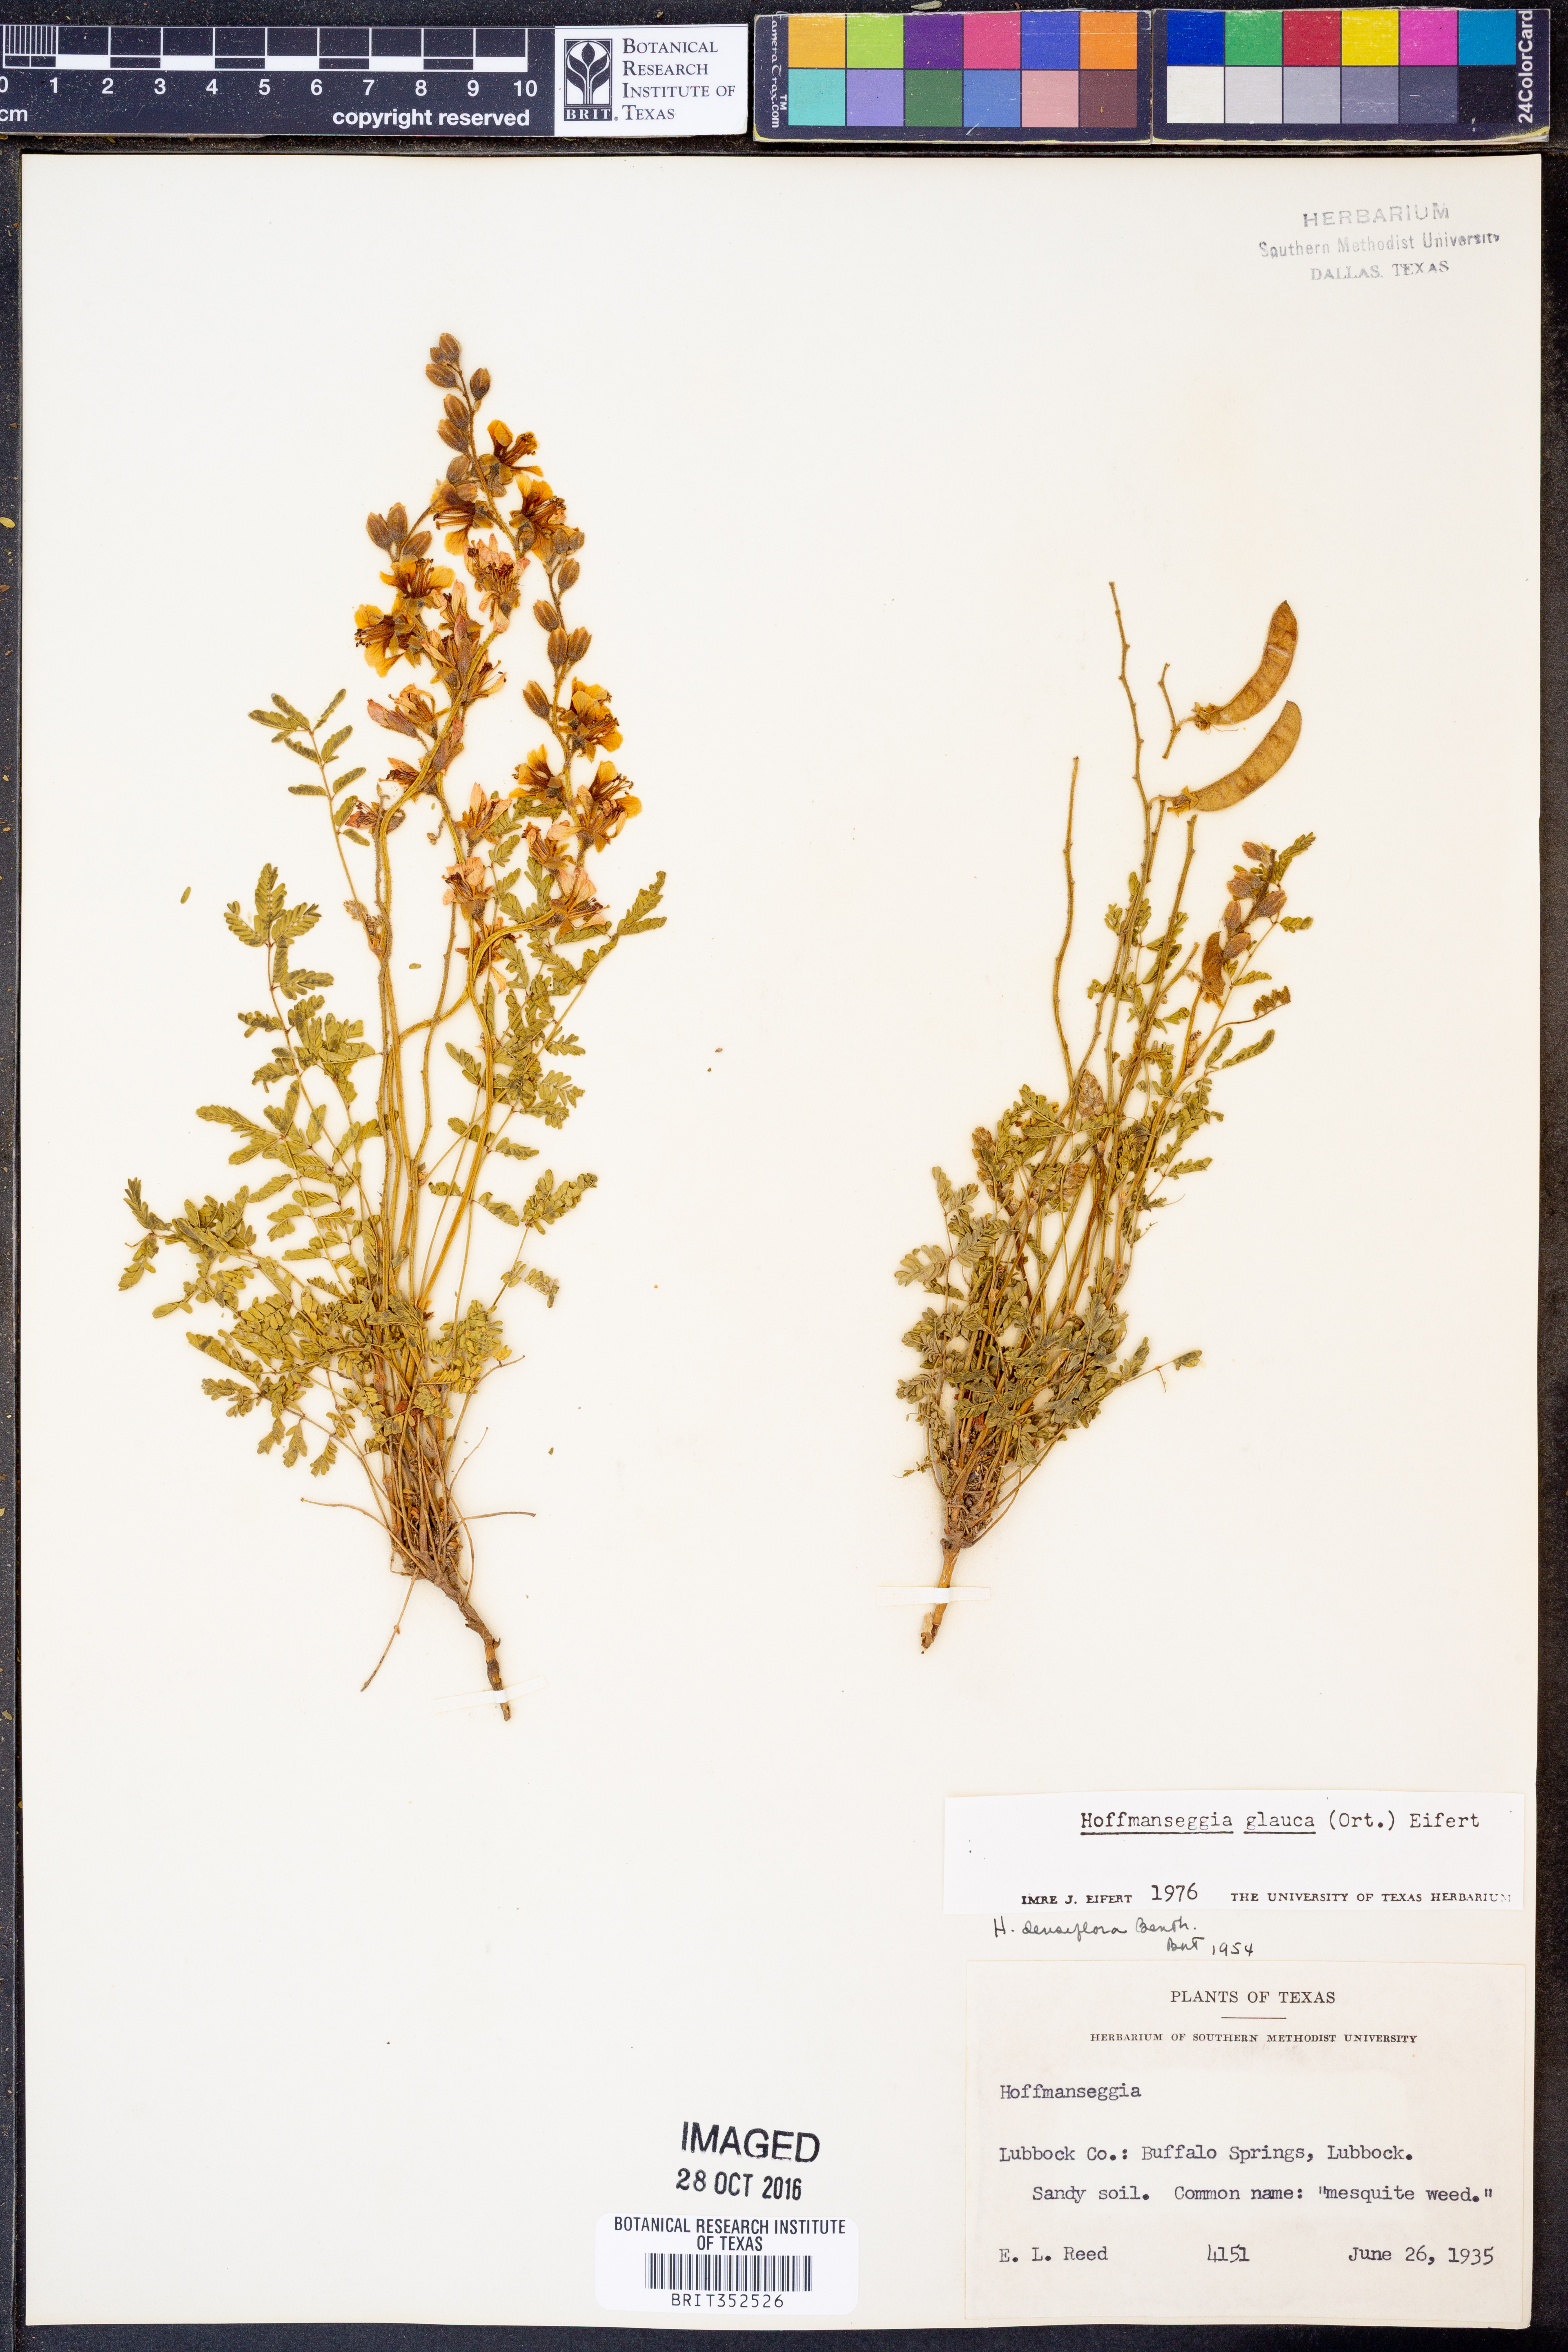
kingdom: Plantae
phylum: Tracheophyta
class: Magnoliopsida
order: Fabales
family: Fabaceae
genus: Hoffmannseggia
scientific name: Hoffmannseggia glauca
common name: Pignut
